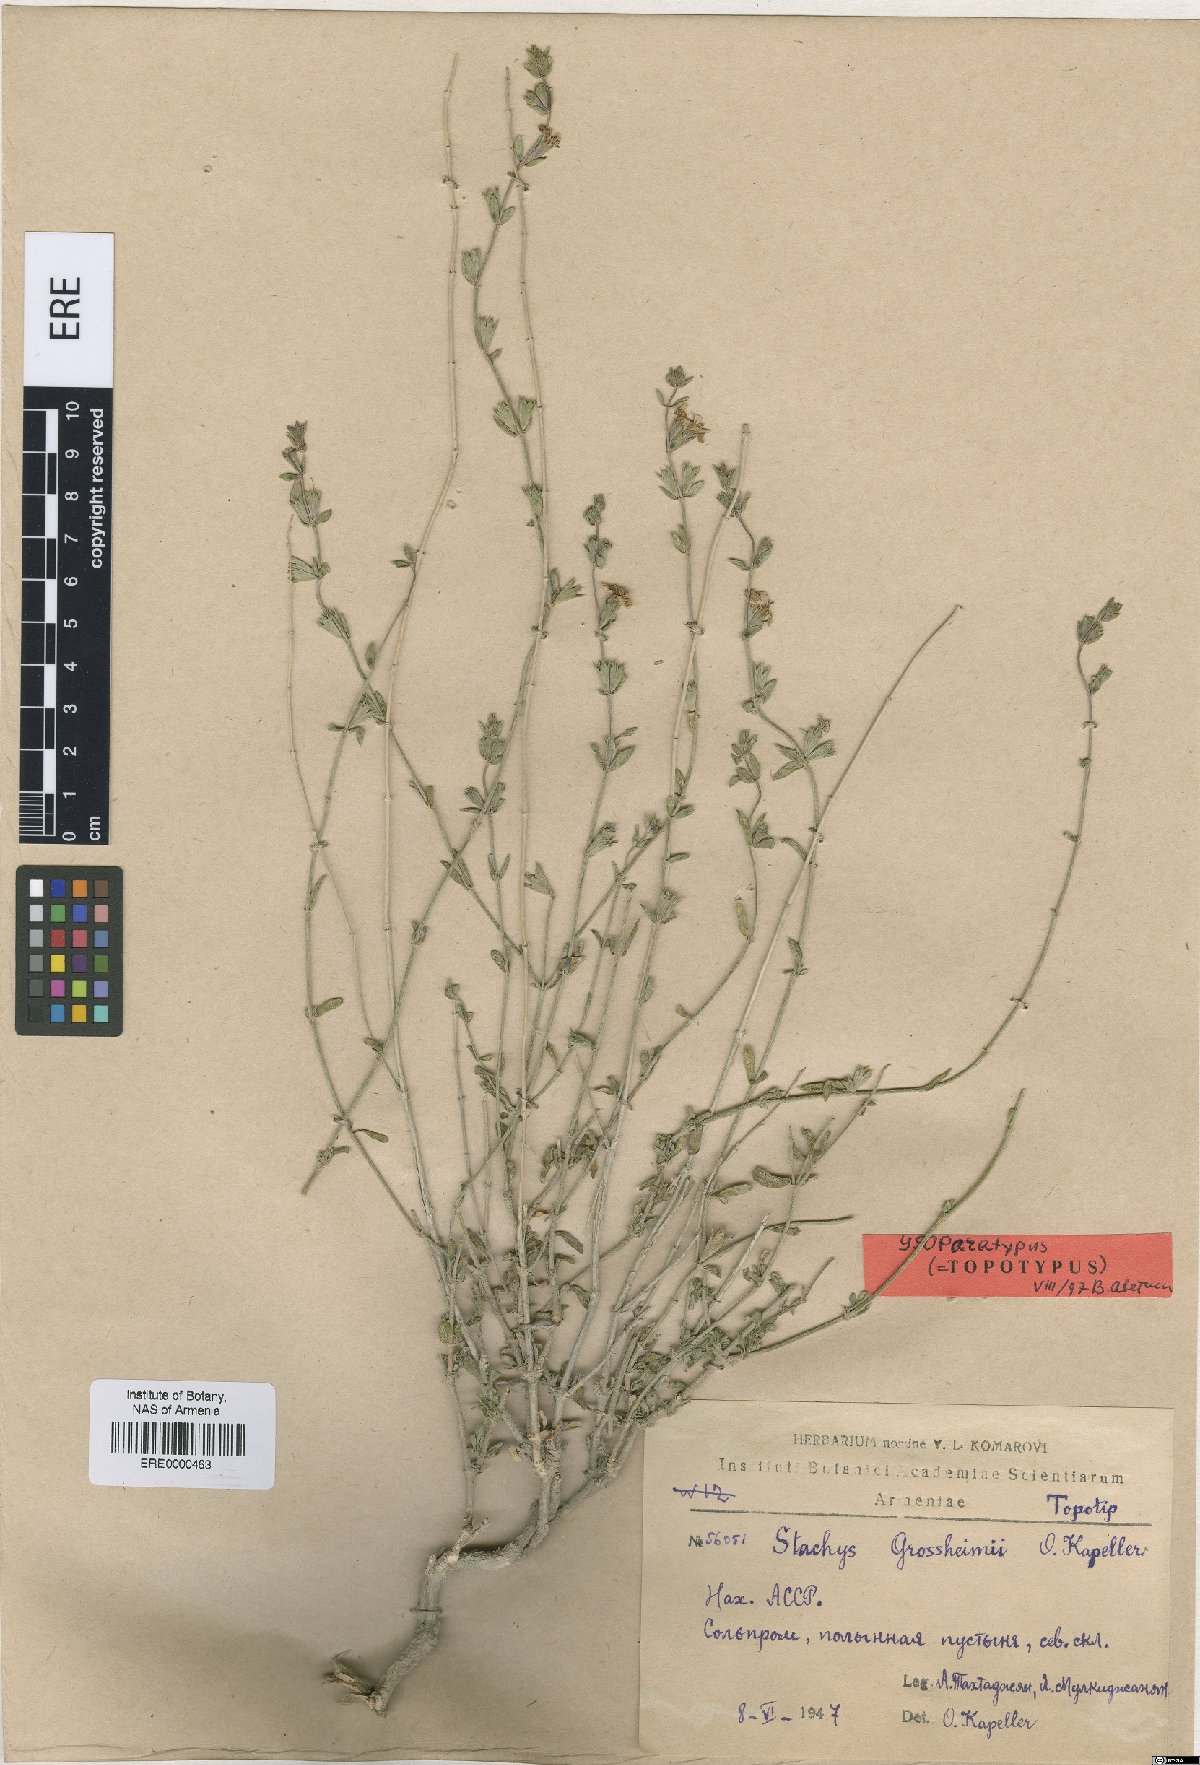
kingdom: Plantae
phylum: Tracheophyta
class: Magnoliopsida
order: Lamiales
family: Lamiaceae
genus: Stachys
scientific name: Stachys fruticulosa
